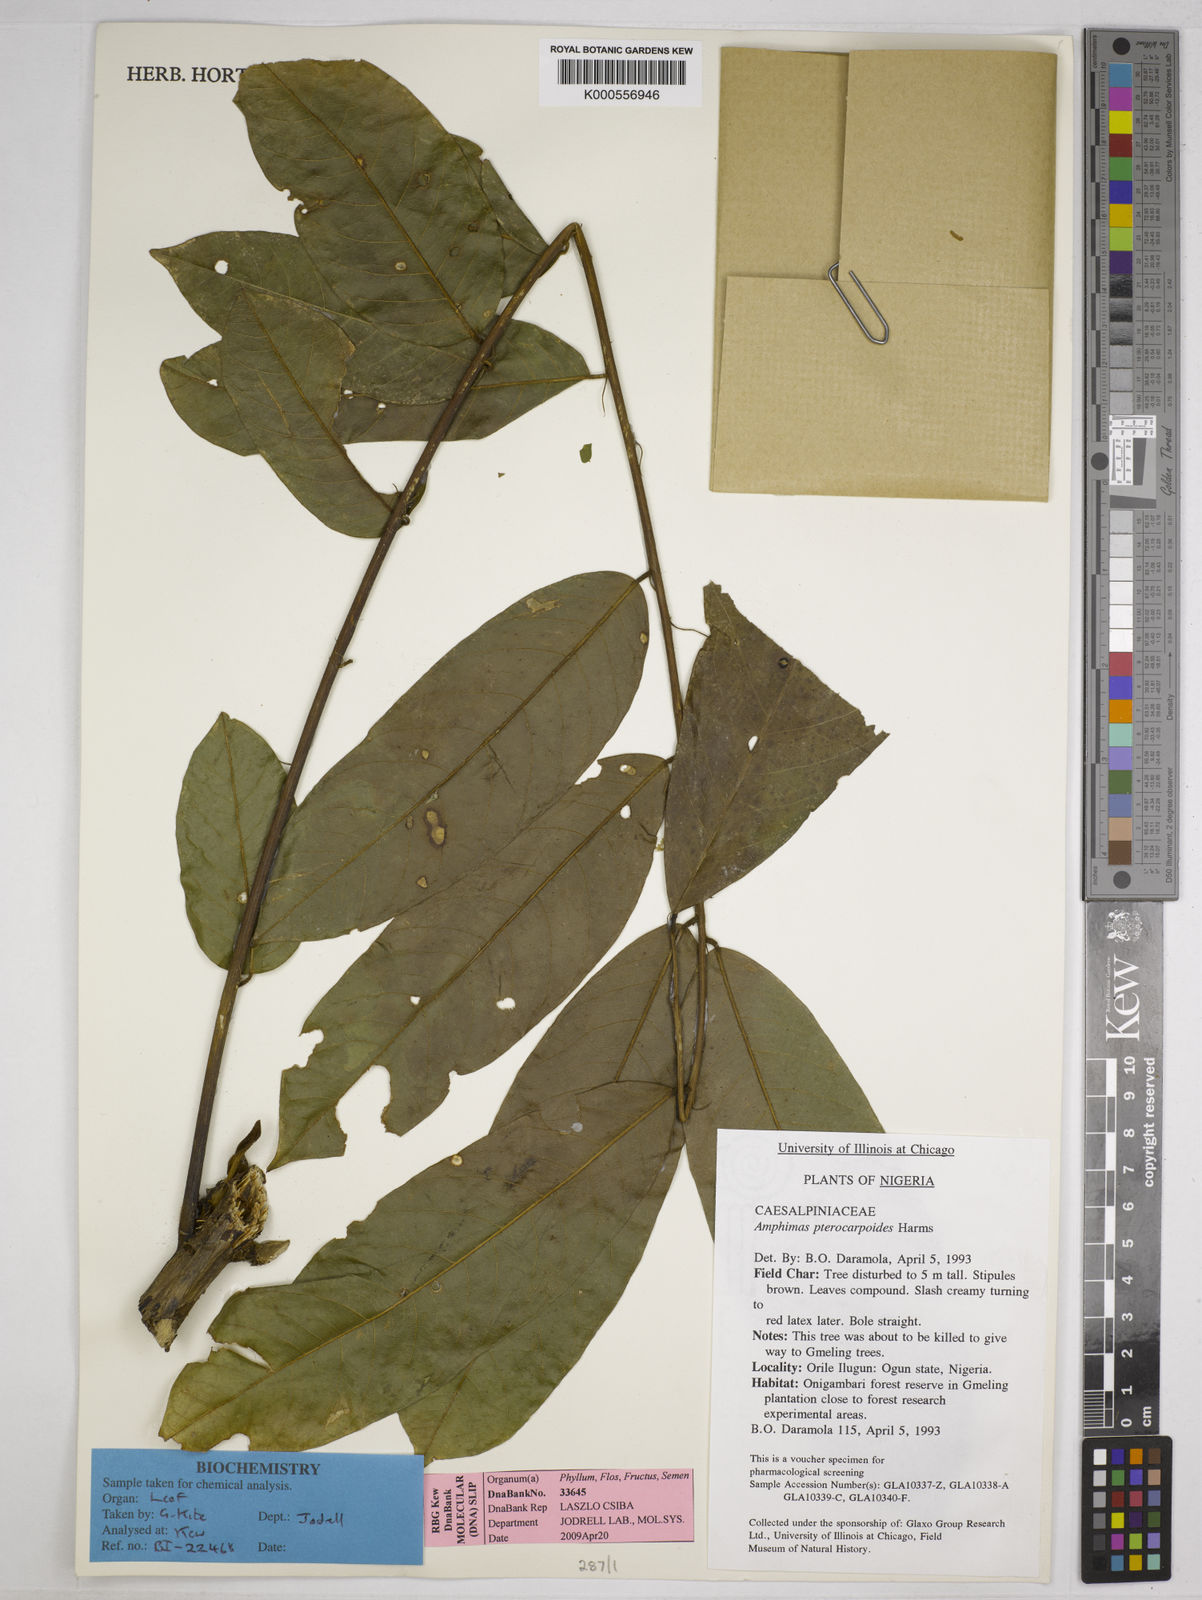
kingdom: Plantae
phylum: Tracheophyta
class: Magnoliopsida
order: Fabales
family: Fabaceae
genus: Amphimas
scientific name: Amphimas pterocarpoides
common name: Bokanga
